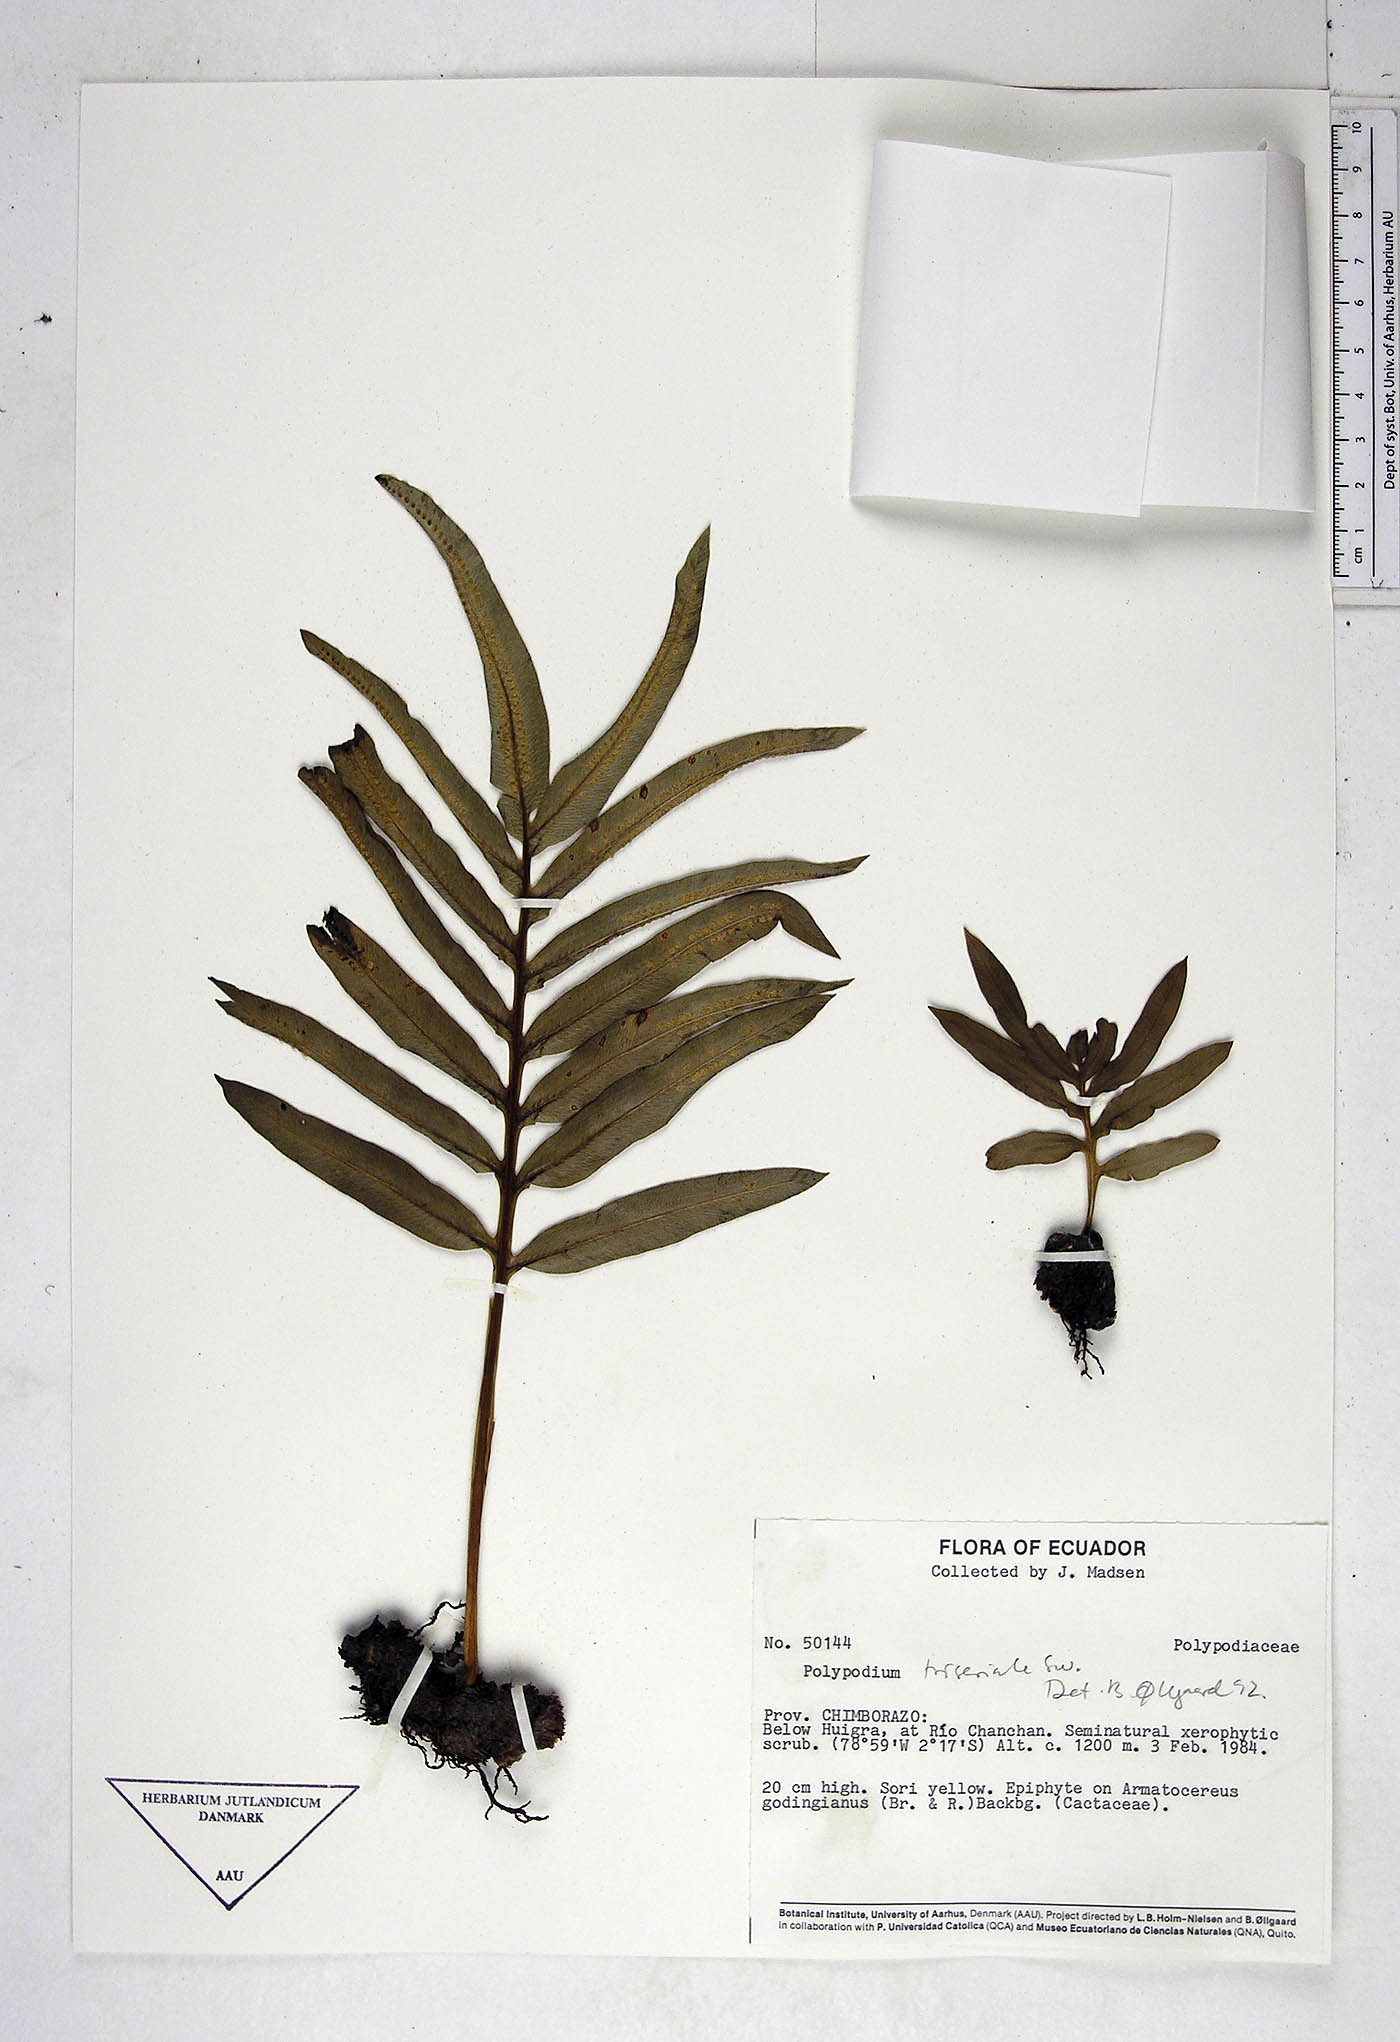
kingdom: Plantae
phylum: Tracheophyta
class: Polypodiopsida
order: Polypodiales
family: Polypodiaceae
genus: Serpocaulon
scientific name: Serpocaulon triseriale
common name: Angle-vein fern
